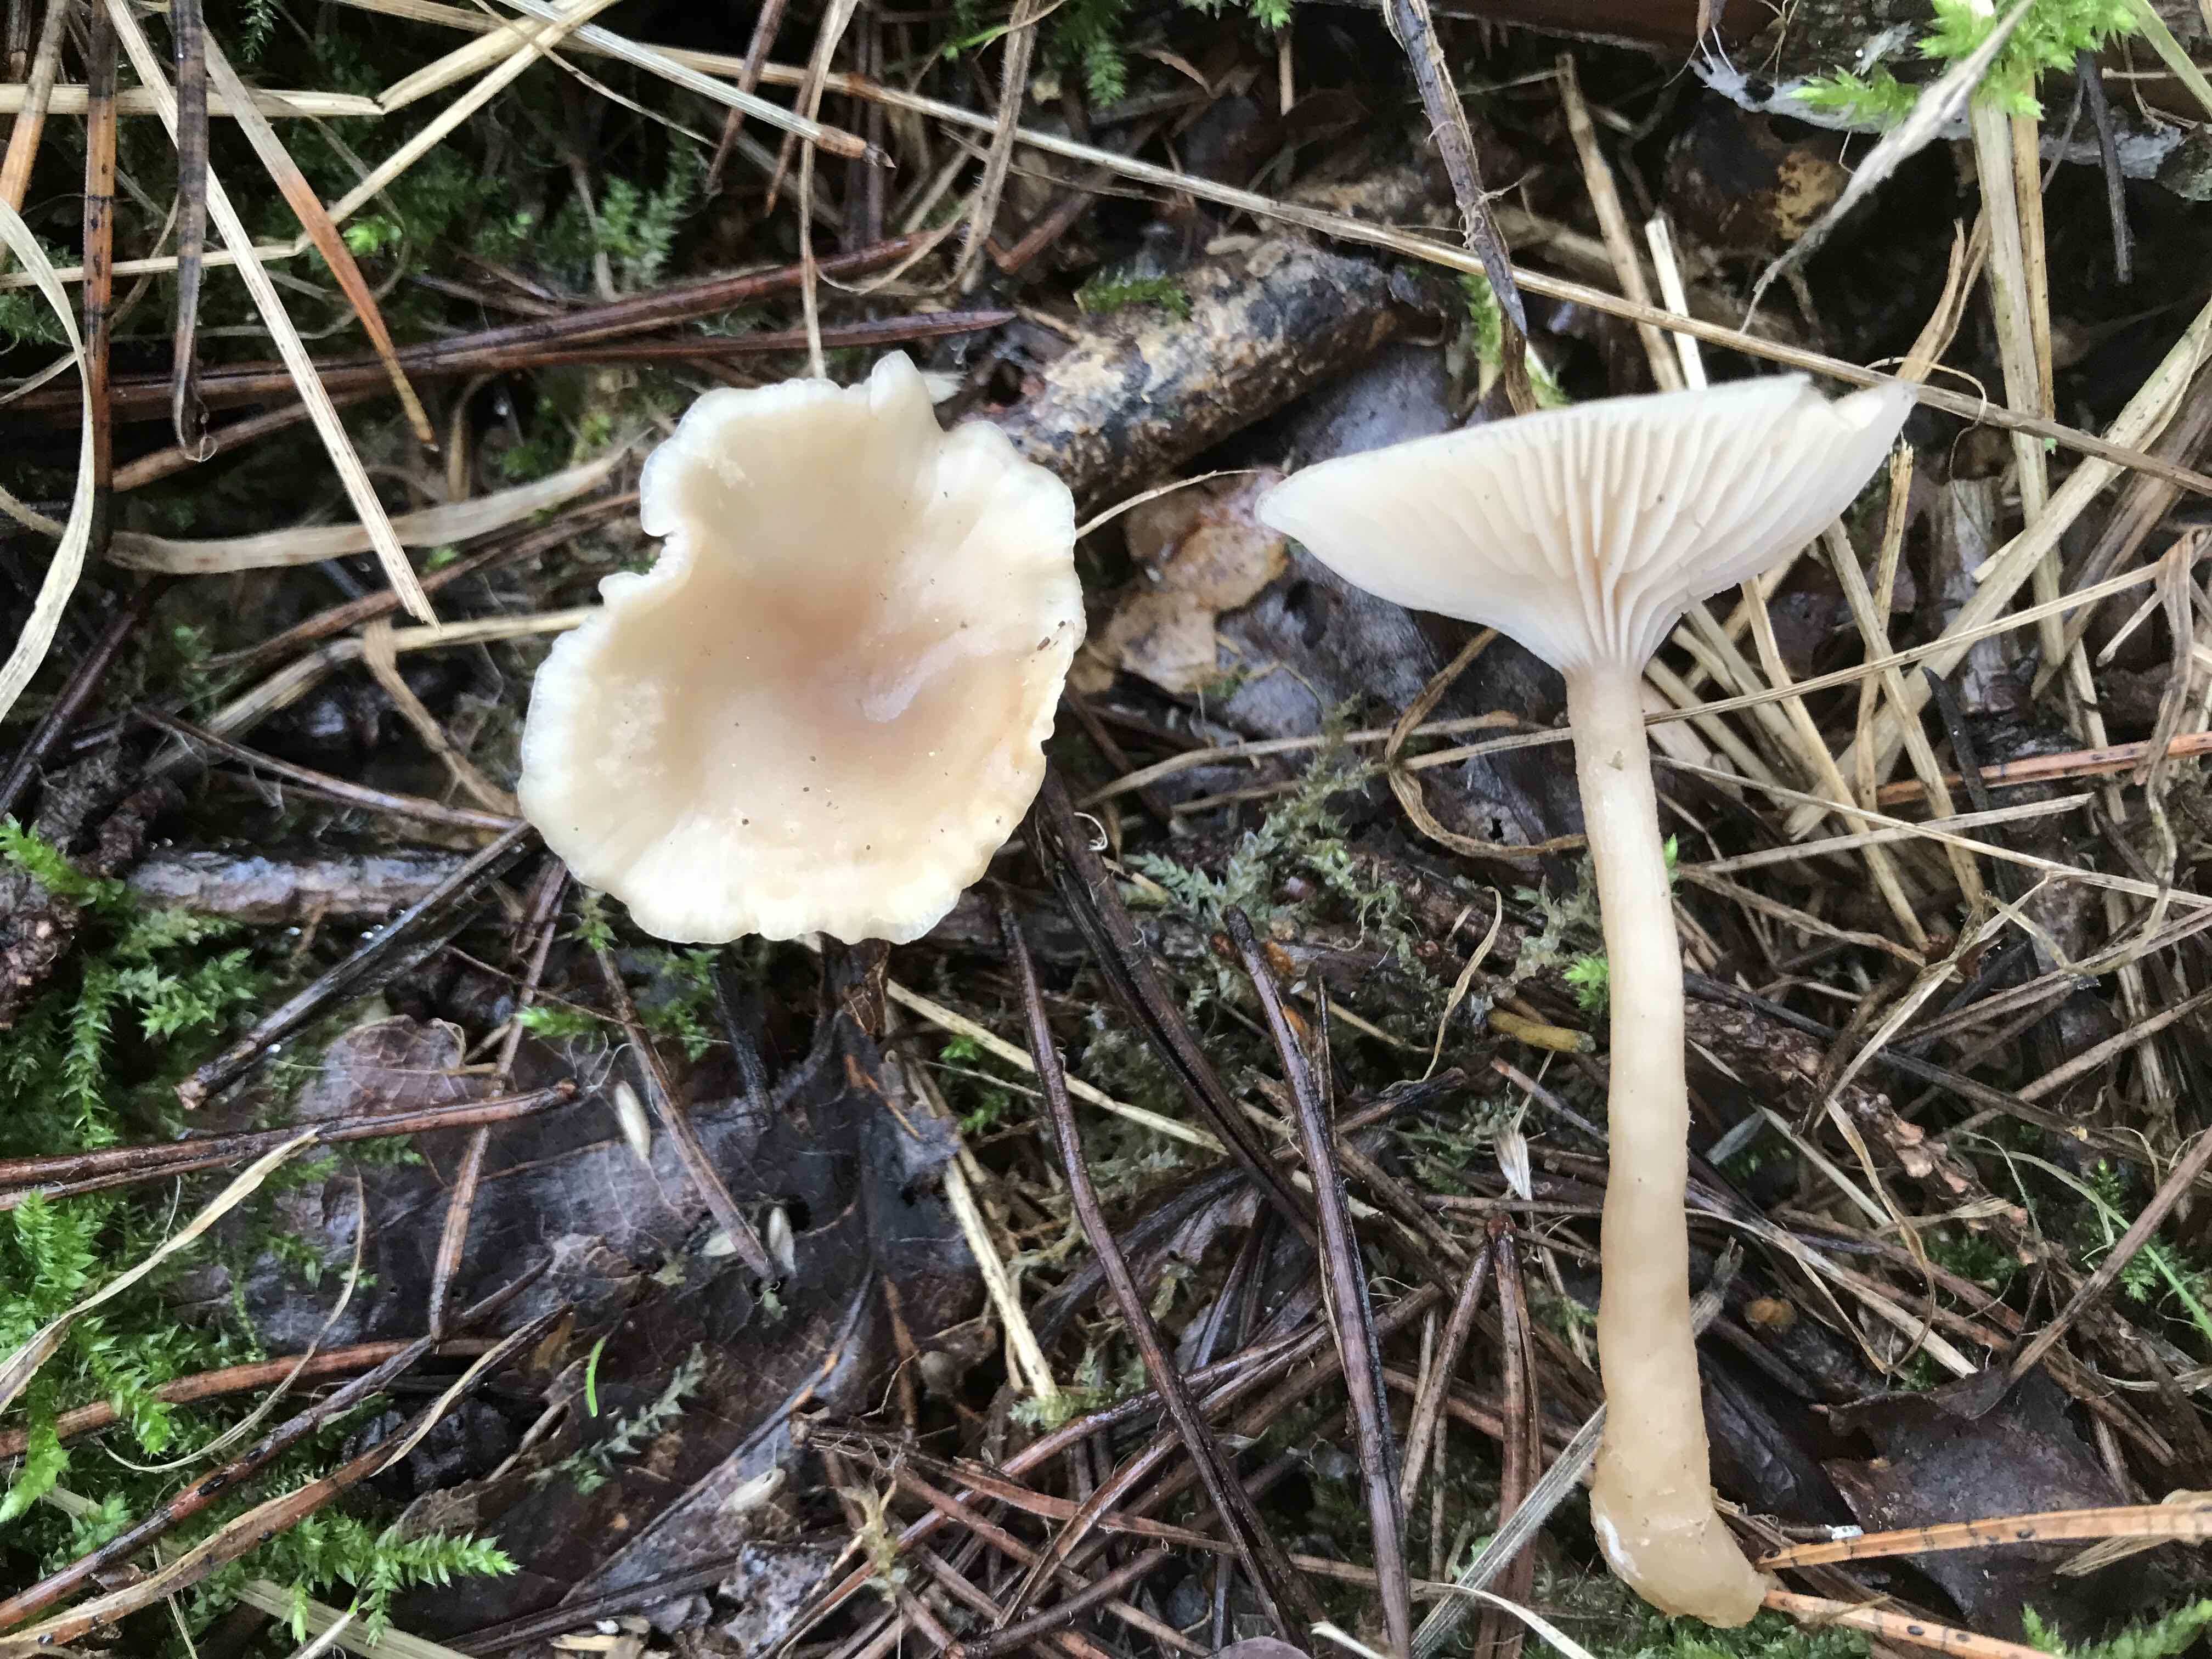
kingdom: Fungi
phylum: Basidiomycota
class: Agaricomycetes
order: Agaricales
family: Tricholomataceae
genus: Clitocybe
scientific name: Clitocybe fragrans
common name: vellugtende tragthat
